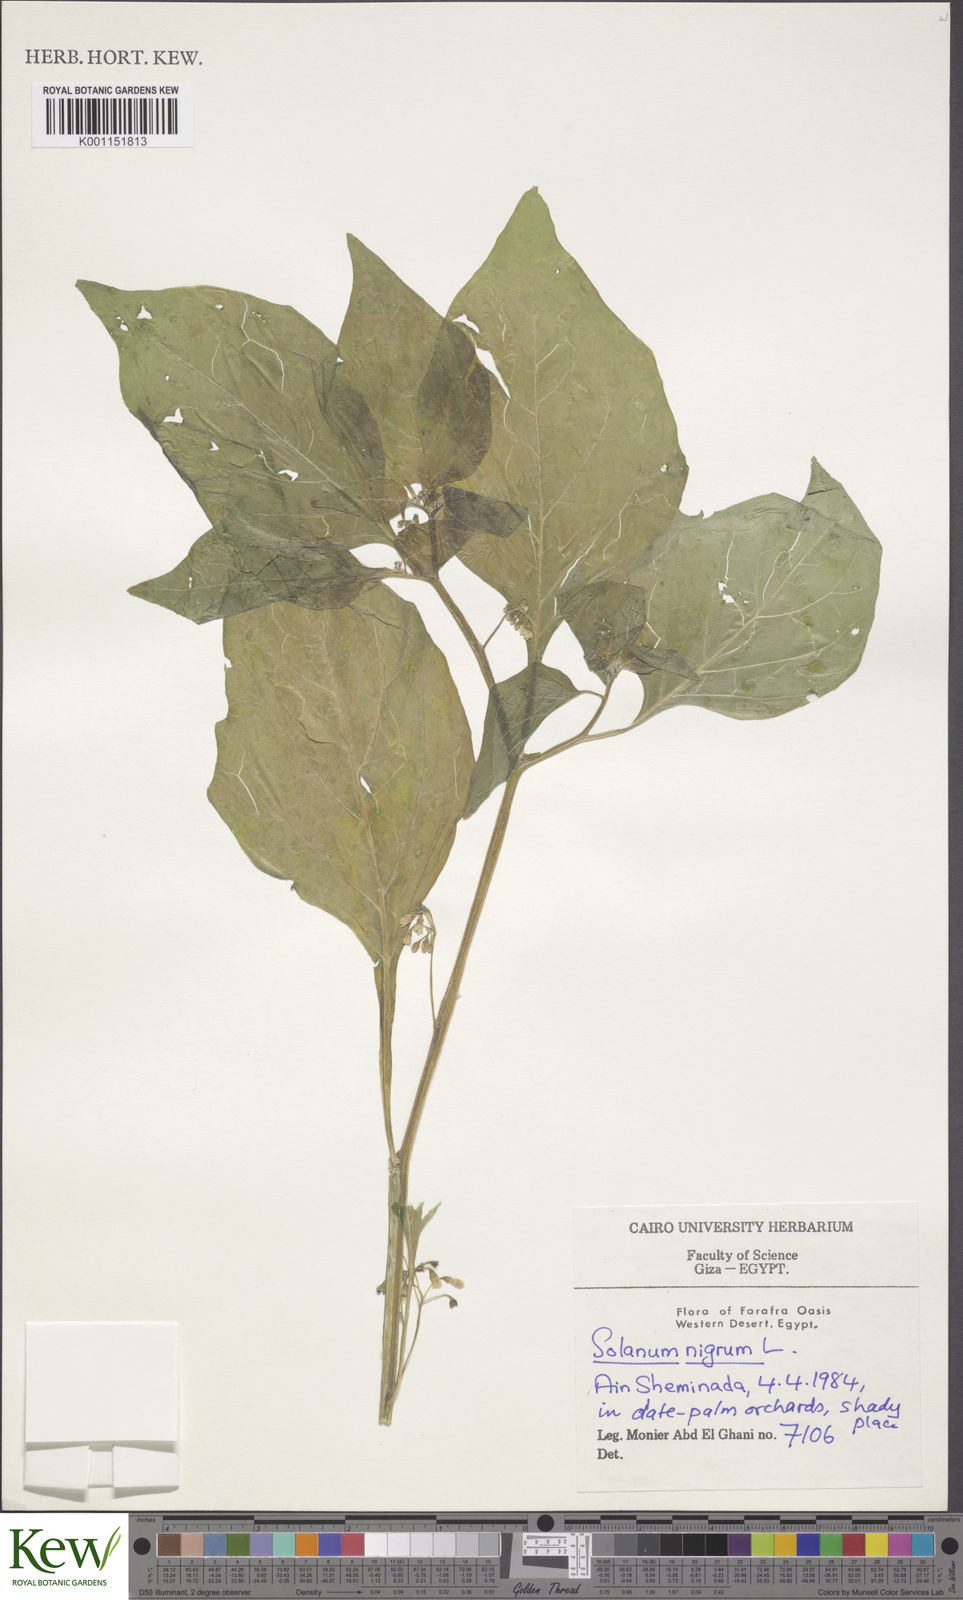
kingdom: Plantae
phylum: Tracheophyta
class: Magnoliopsida
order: Solanales
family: Solanaceae
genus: Solanum
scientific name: Solanum nigrum
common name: Black nightshade
